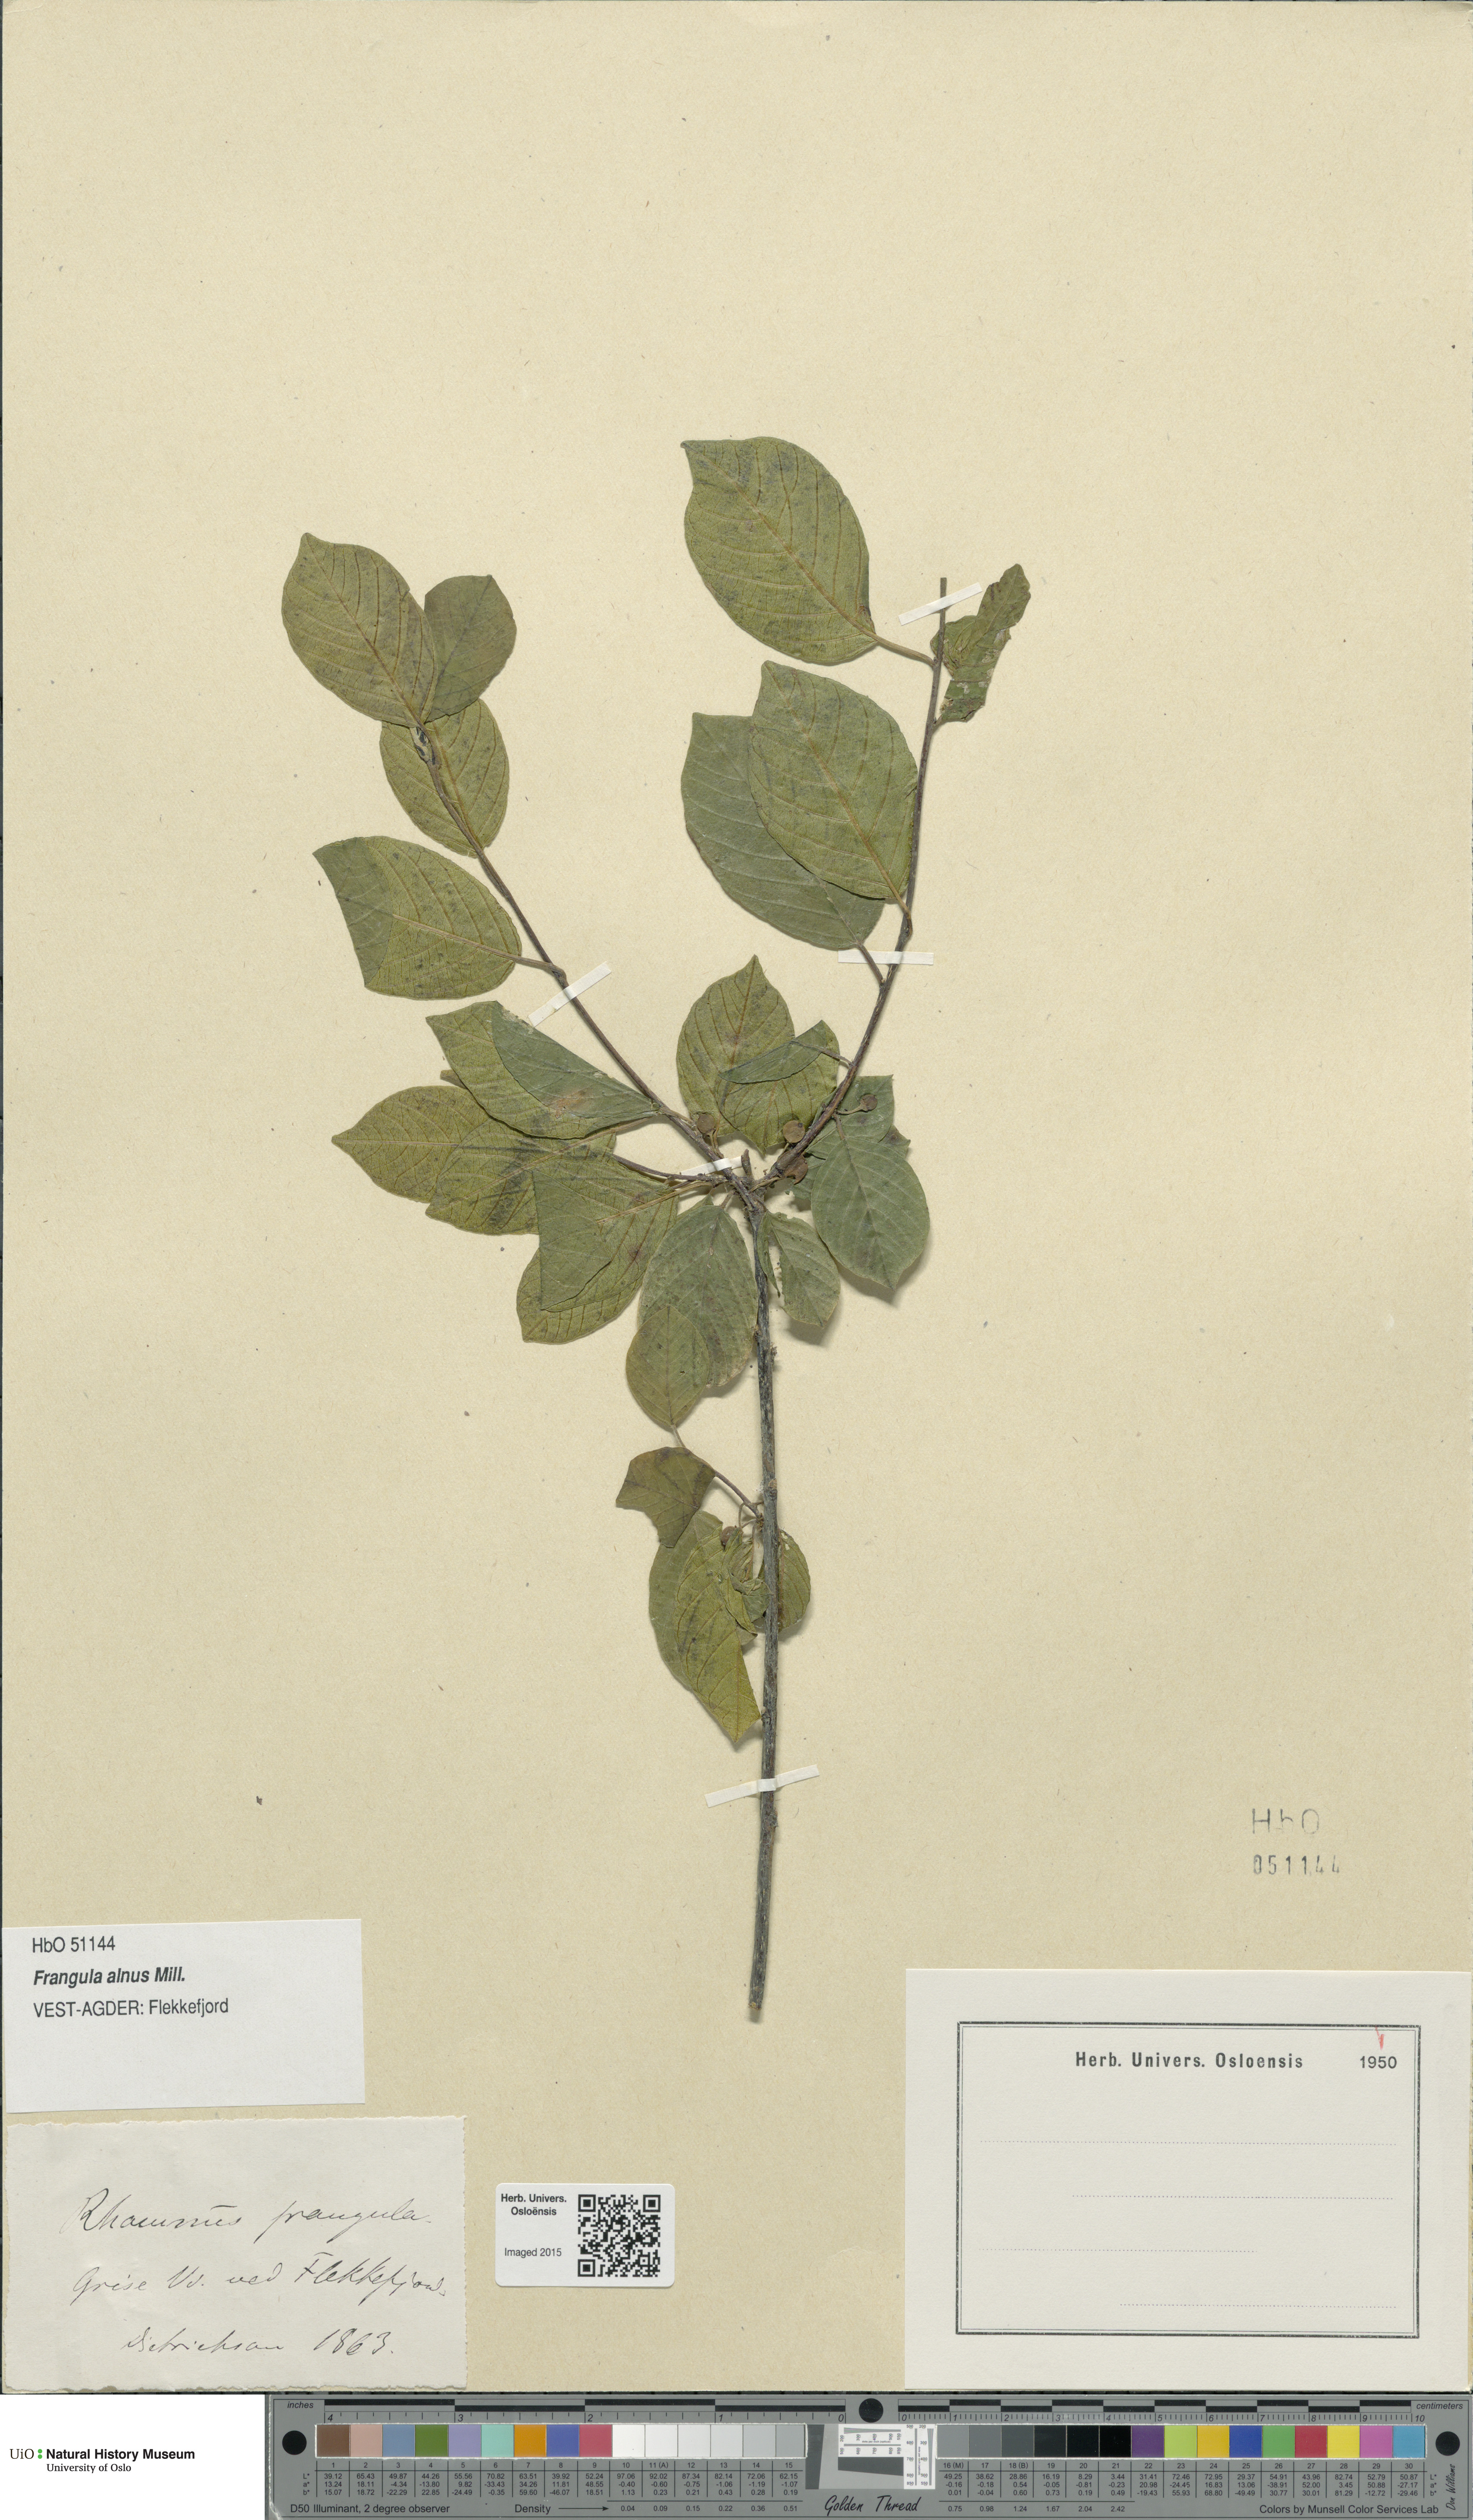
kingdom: Plantae
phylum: Tracheophyta
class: Magnoliopsida
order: Rosales
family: Rhamnaceae
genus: Frangula
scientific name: Frangula alnus
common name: Alder buckthorn
